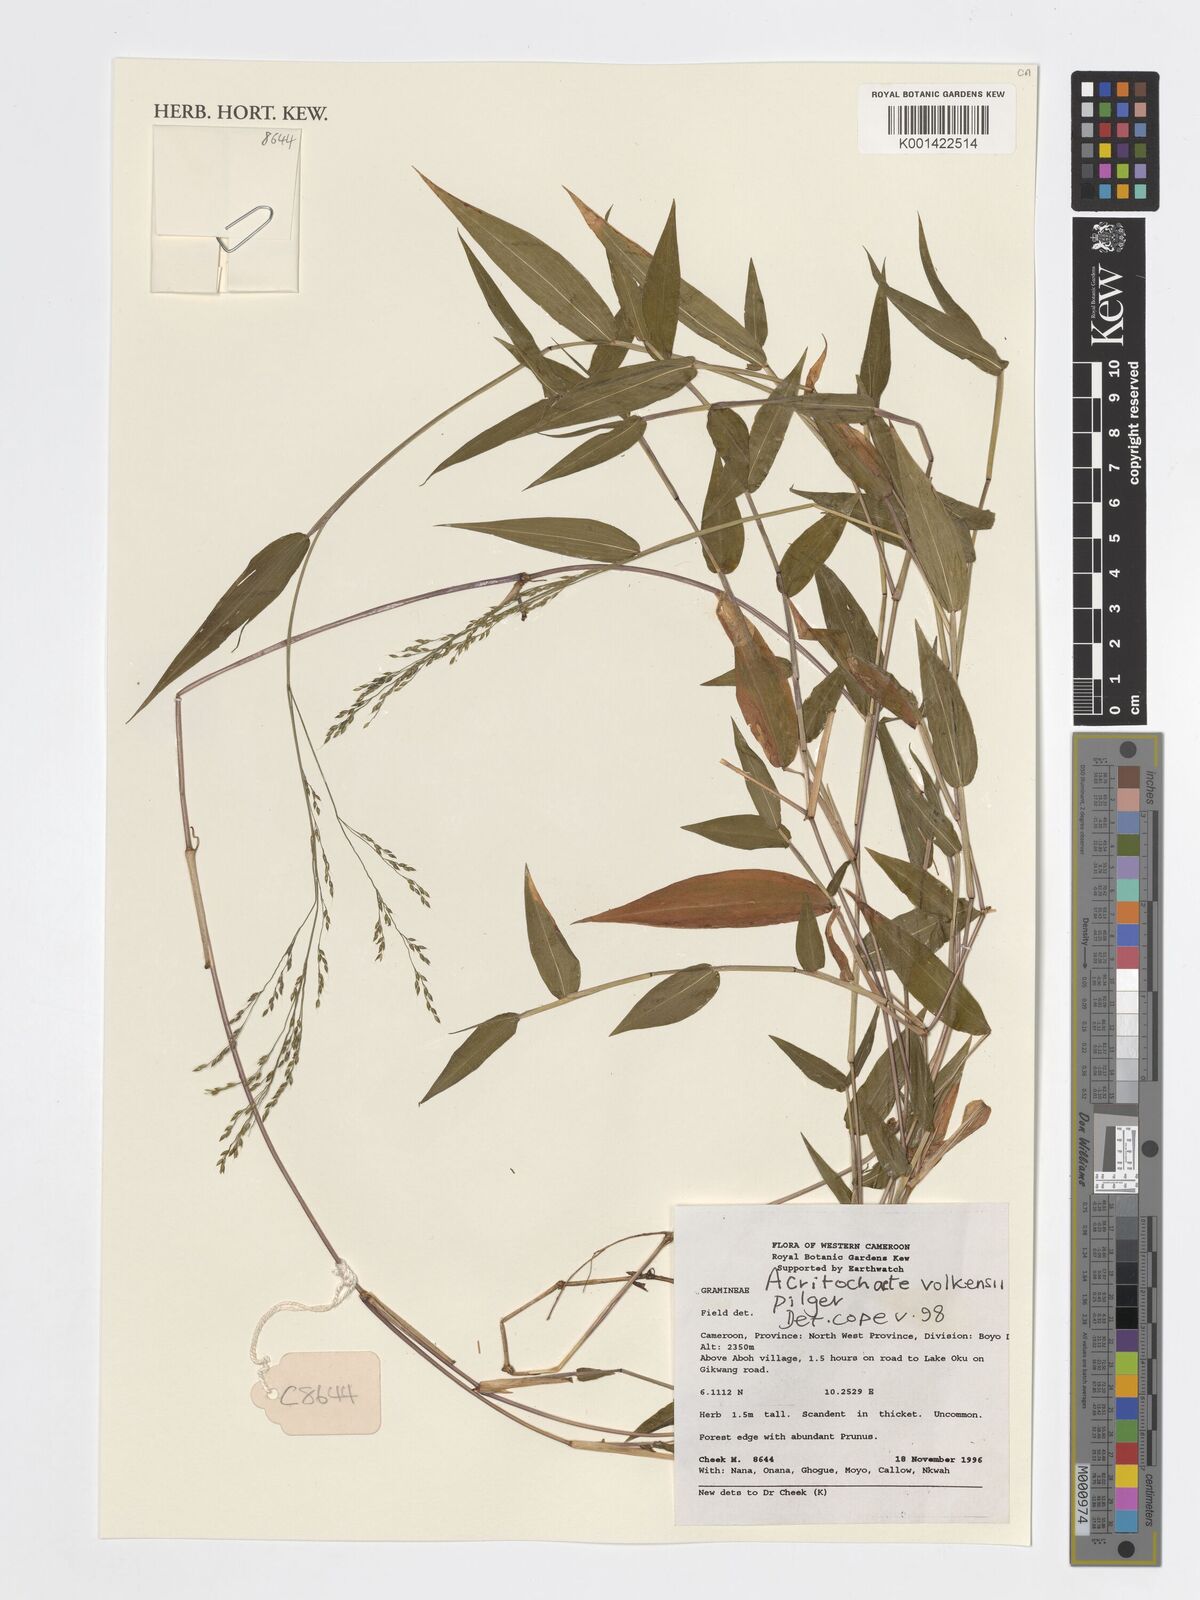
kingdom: Plantae
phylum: Tracheophyta
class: Liliopsida
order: Poales
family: Poaceae
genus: Acritochaete
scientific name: Acritochaete volkensii
